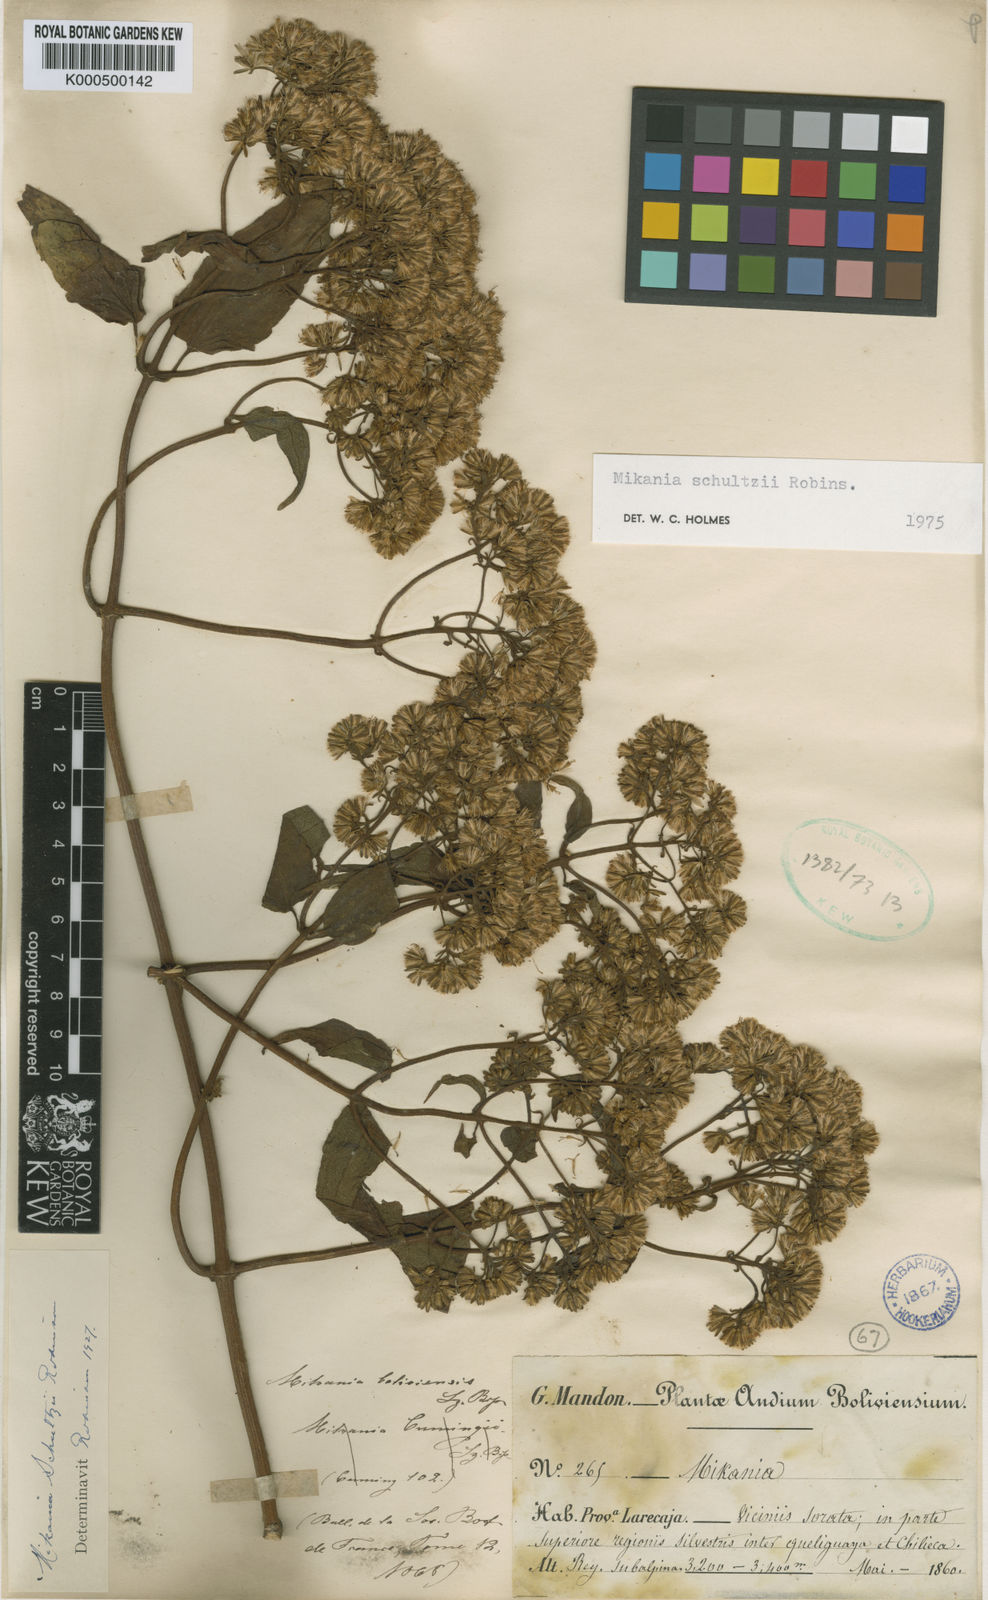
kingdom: Plantae
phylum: Tracheophyta
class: Magnoliopsida
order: Asterales
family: Asteraceae
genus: Mikania
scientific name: Mikania schultzii
